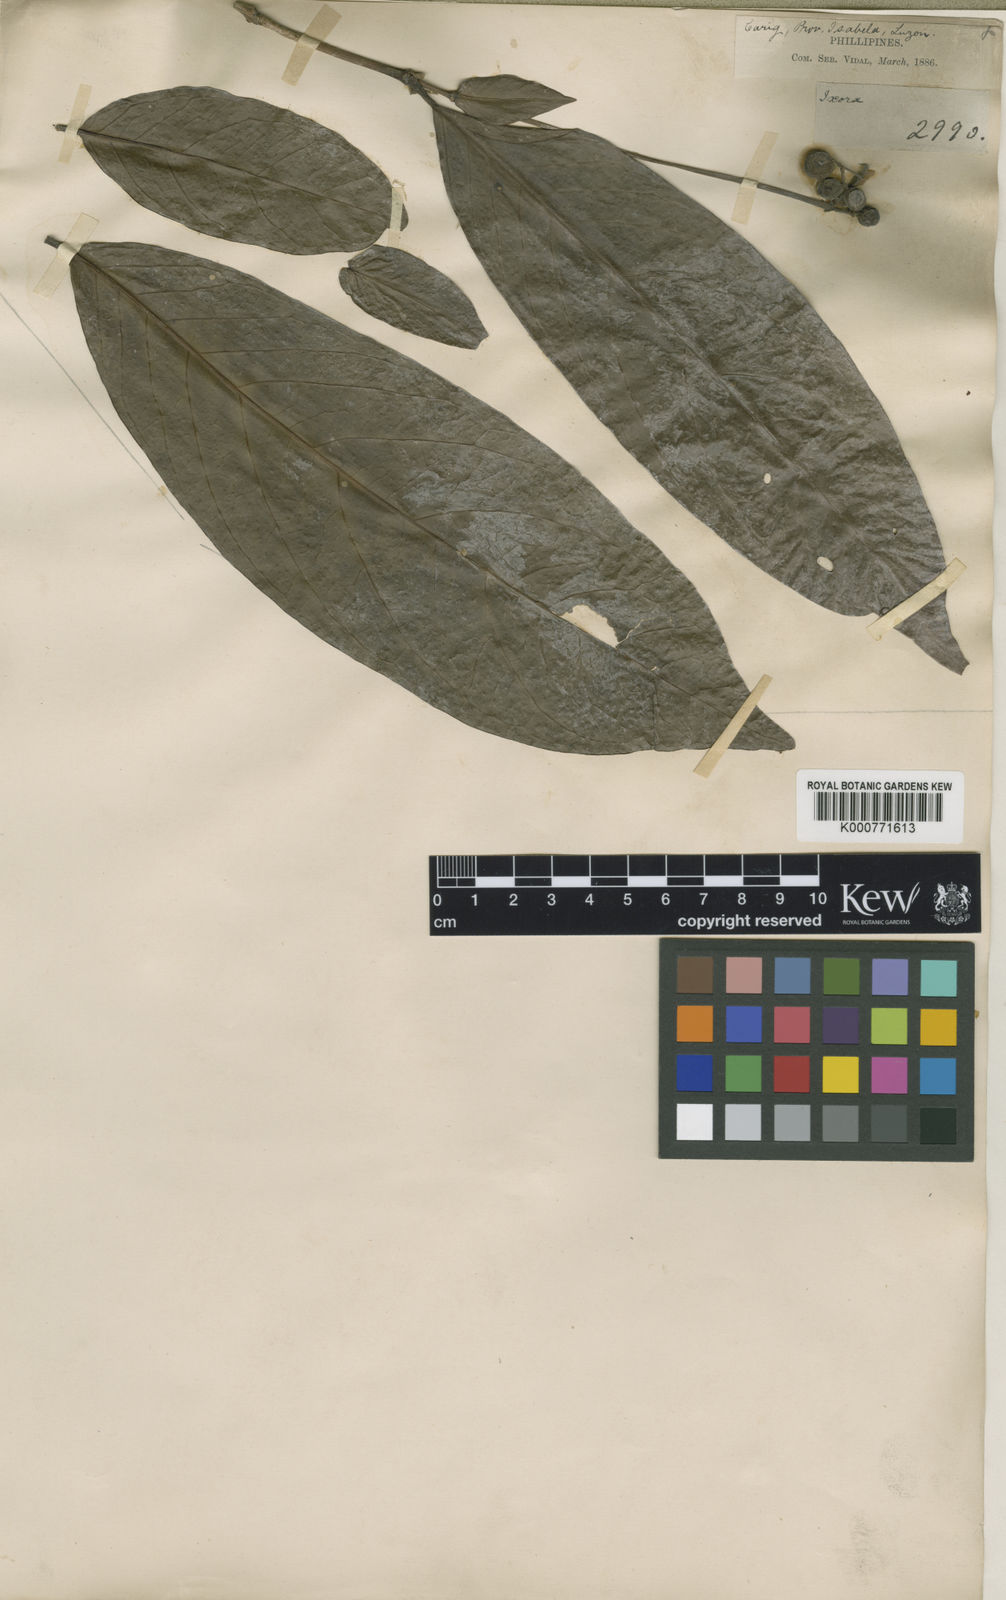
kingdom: Plantae
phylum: Tracheophyta
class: Magnoliopsida
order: Gentianales
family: Rubiaceae
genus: Ixora
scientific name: Ixora cumingiana
